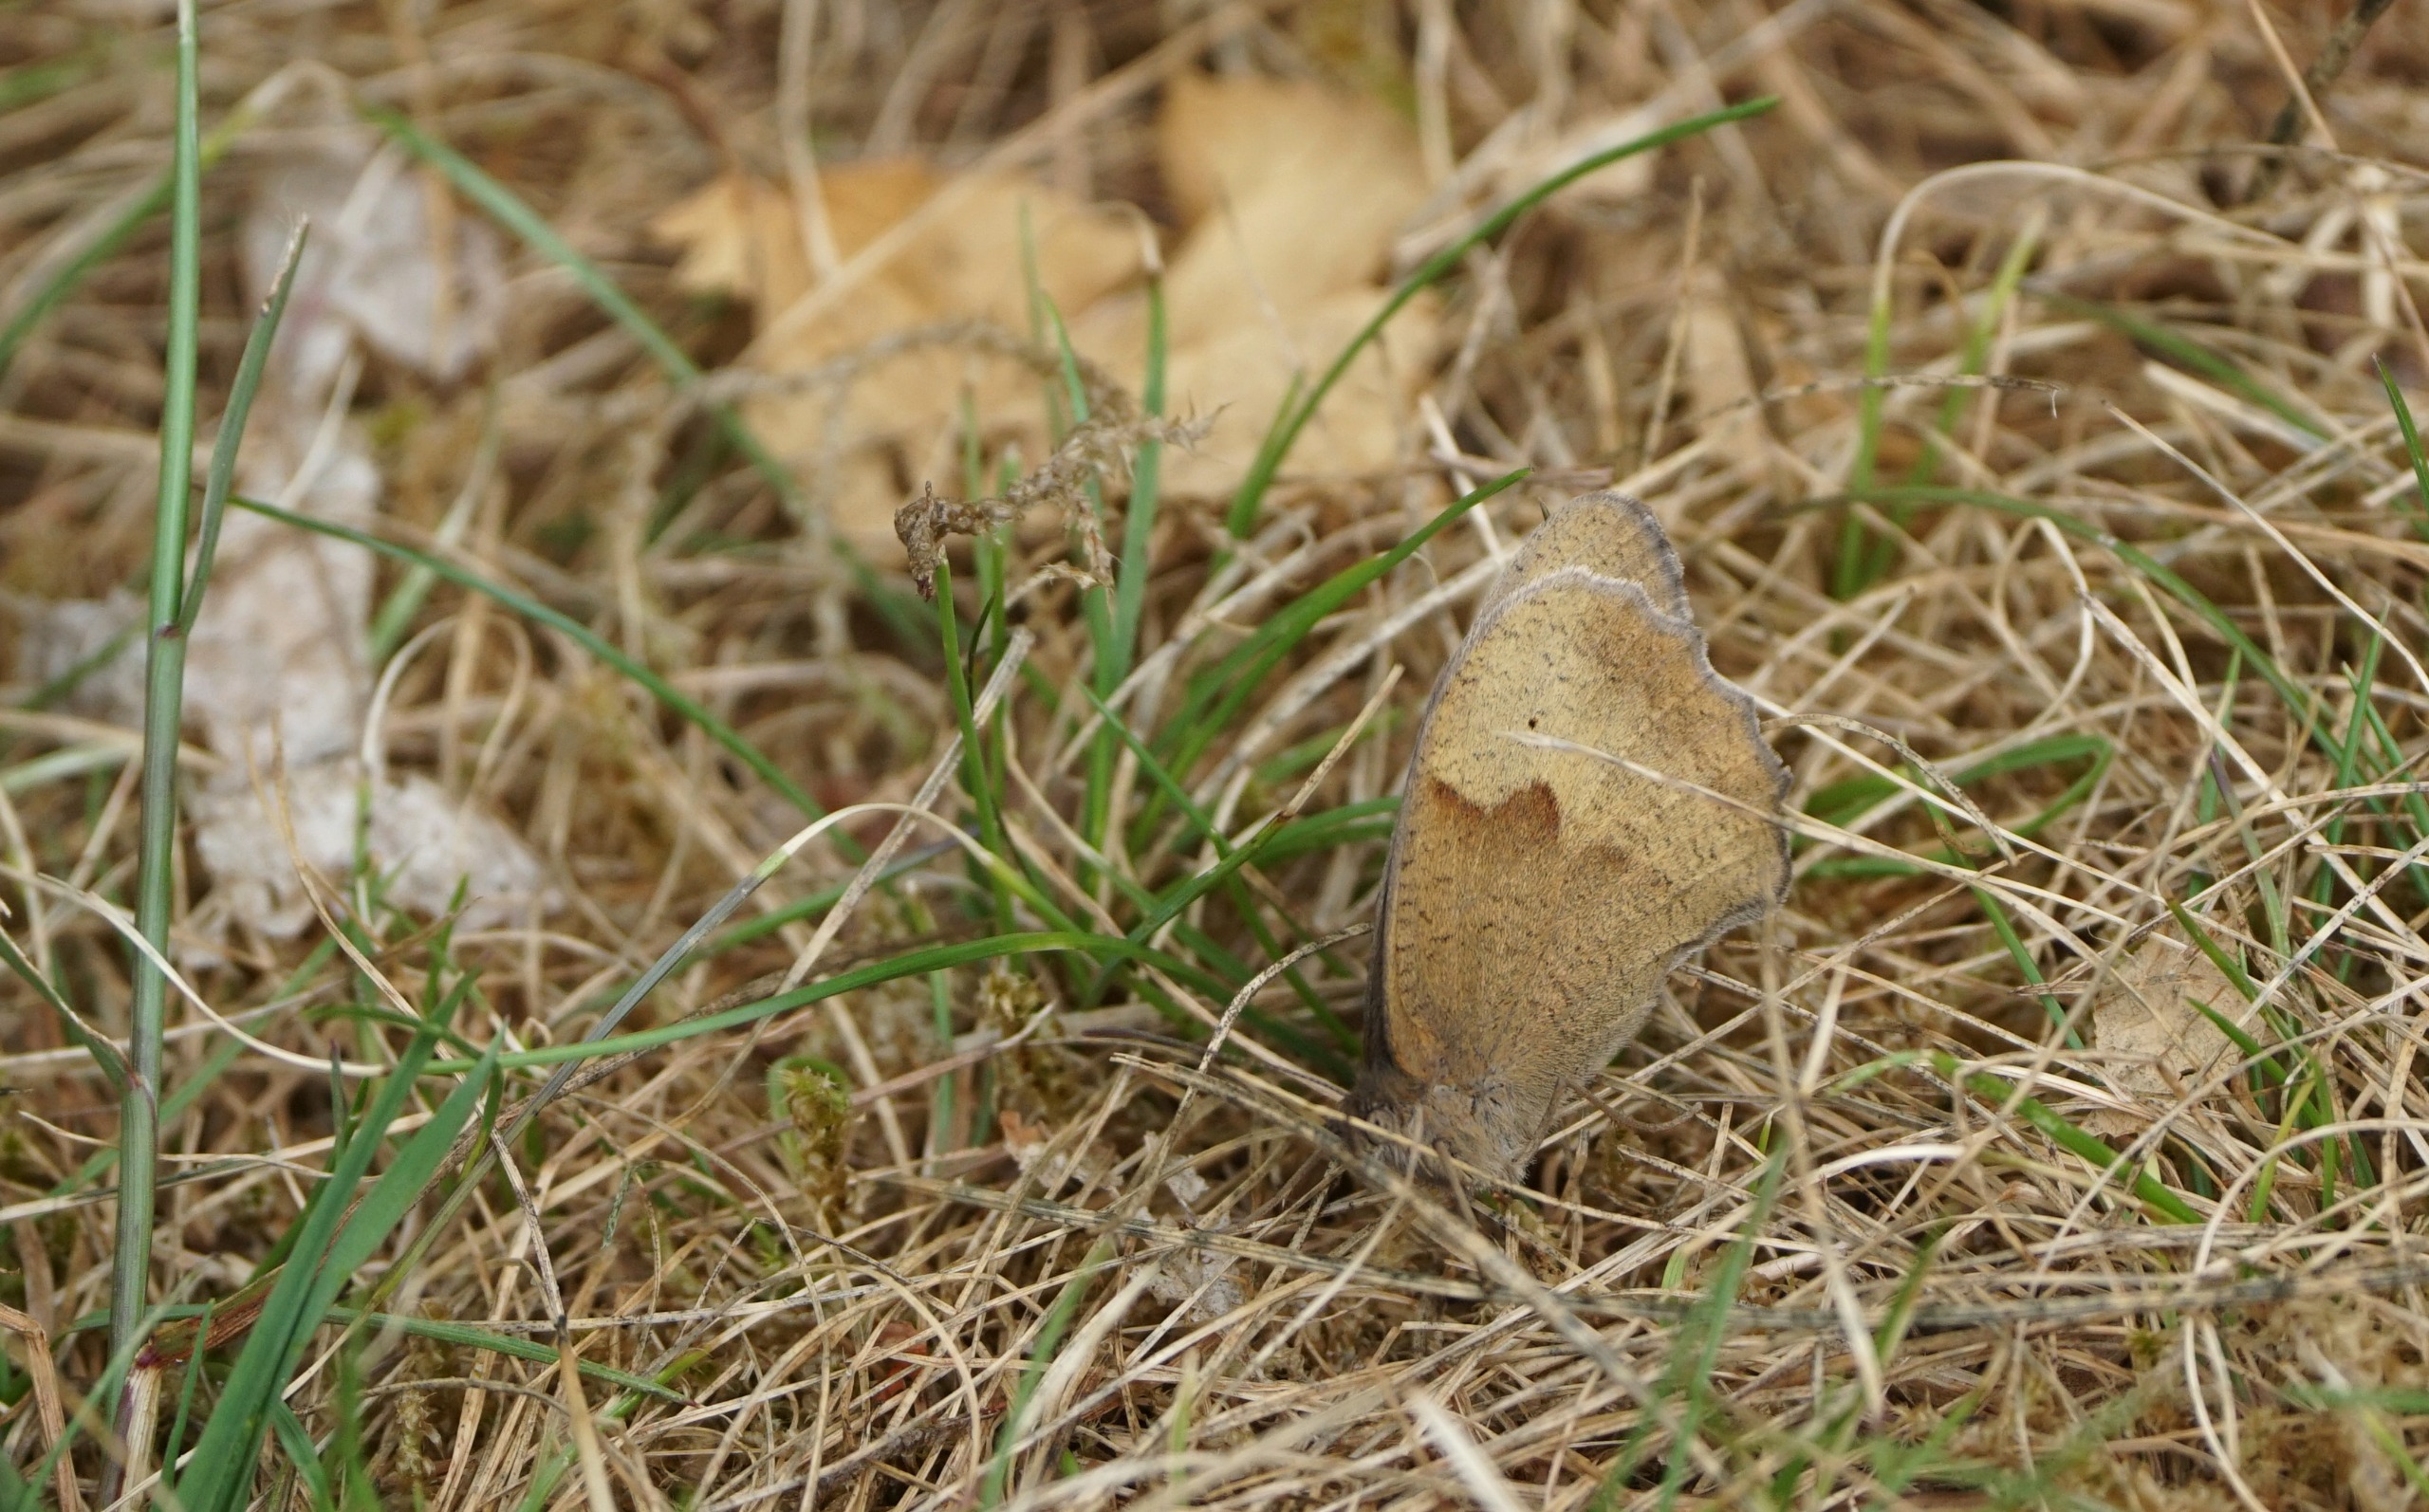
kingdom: Animalia
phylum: Arthropoda
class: Insecta
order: Lepidoptera
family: Nymphalidae
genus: Maniola
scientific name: Maniola jurtina
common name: Græsrandøje
